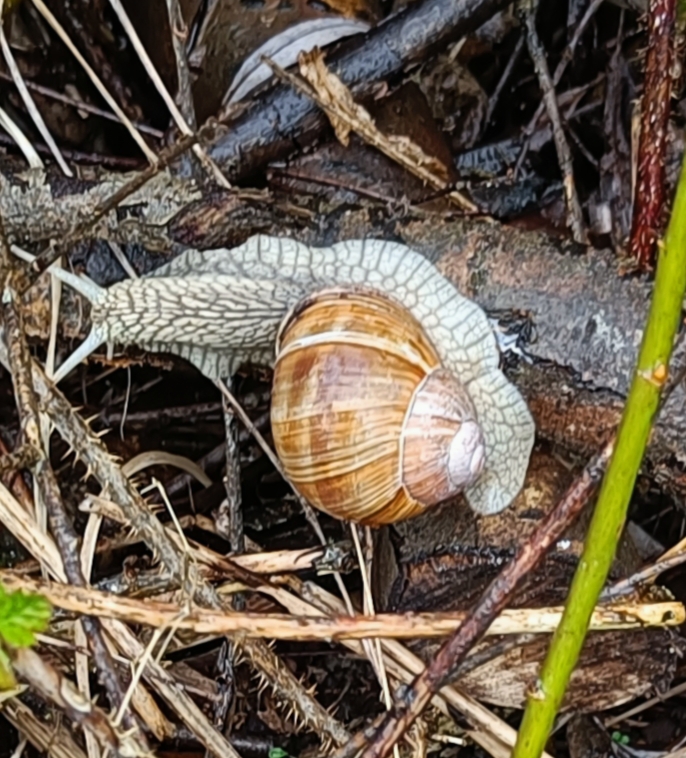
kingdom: Animalia
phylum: Mollusca
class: Gastropoda
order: Stylommatophora
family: Helicidae
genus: Helix
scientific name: Helix pomatia
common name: Vinbjergsnegl
